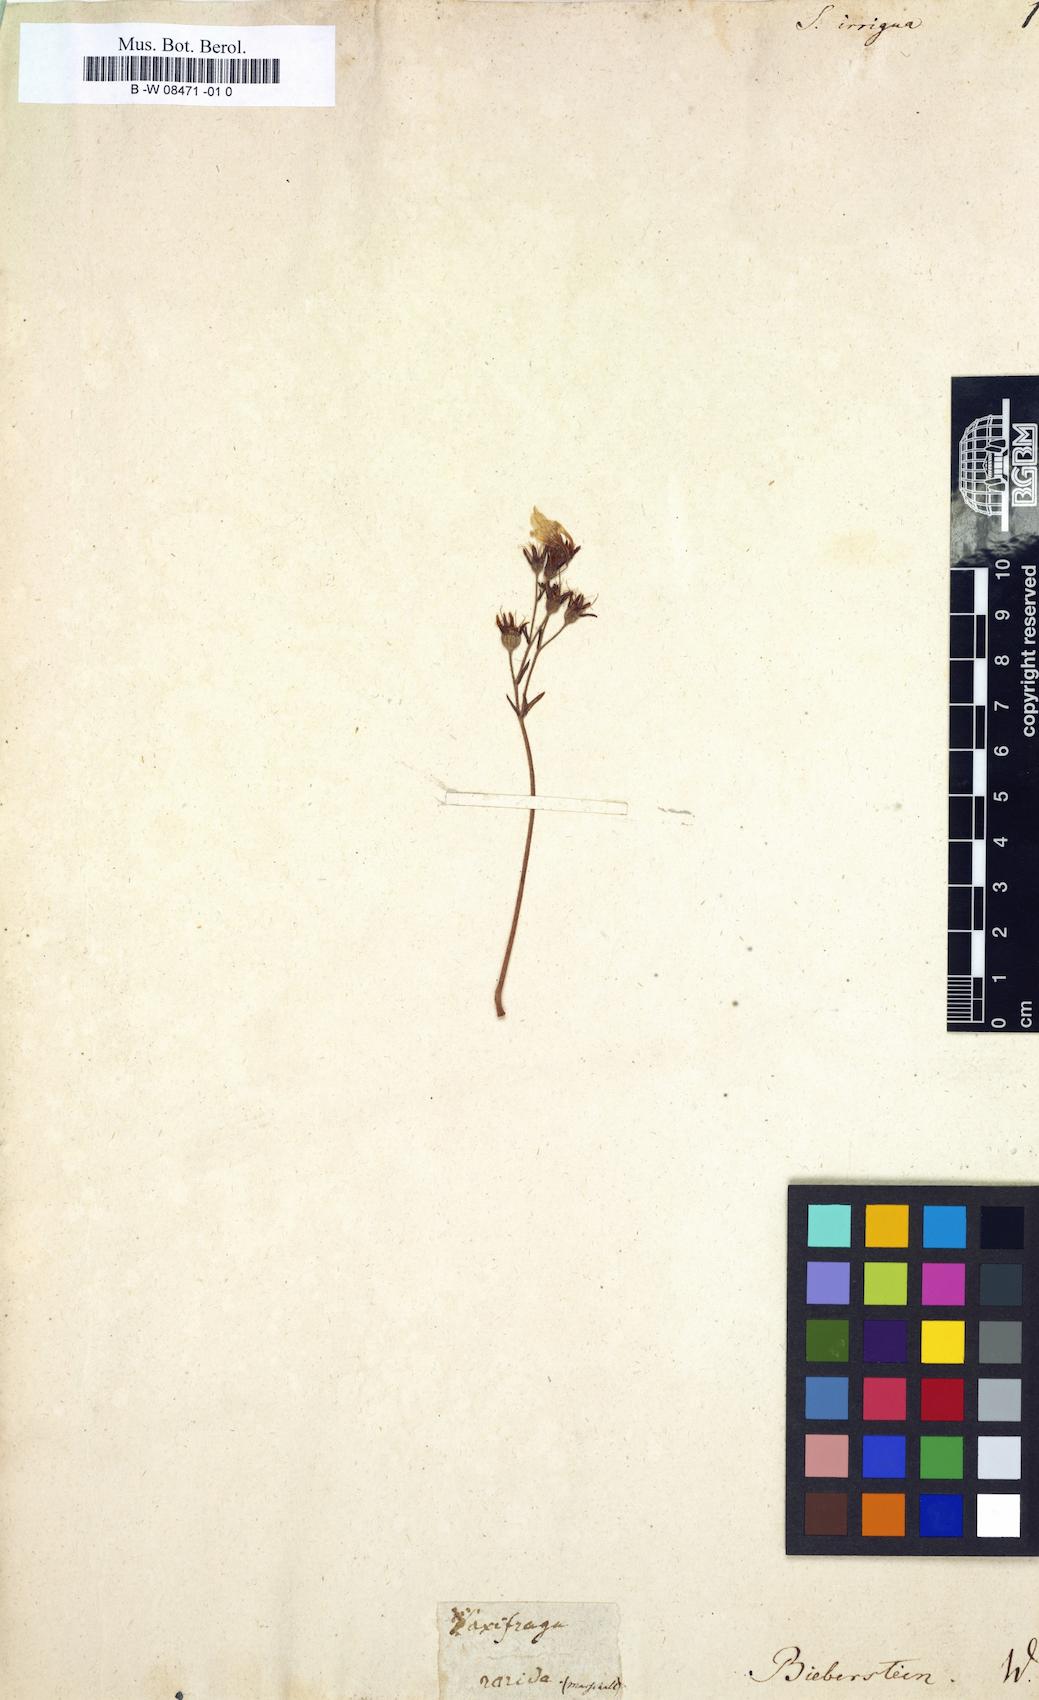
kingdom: Plantae
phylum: Tracheophyta
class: Magnoliopsida
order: Saxifragales
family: Saxifragaceae
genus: Saxifraga
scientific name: Saxifraga irrigua
